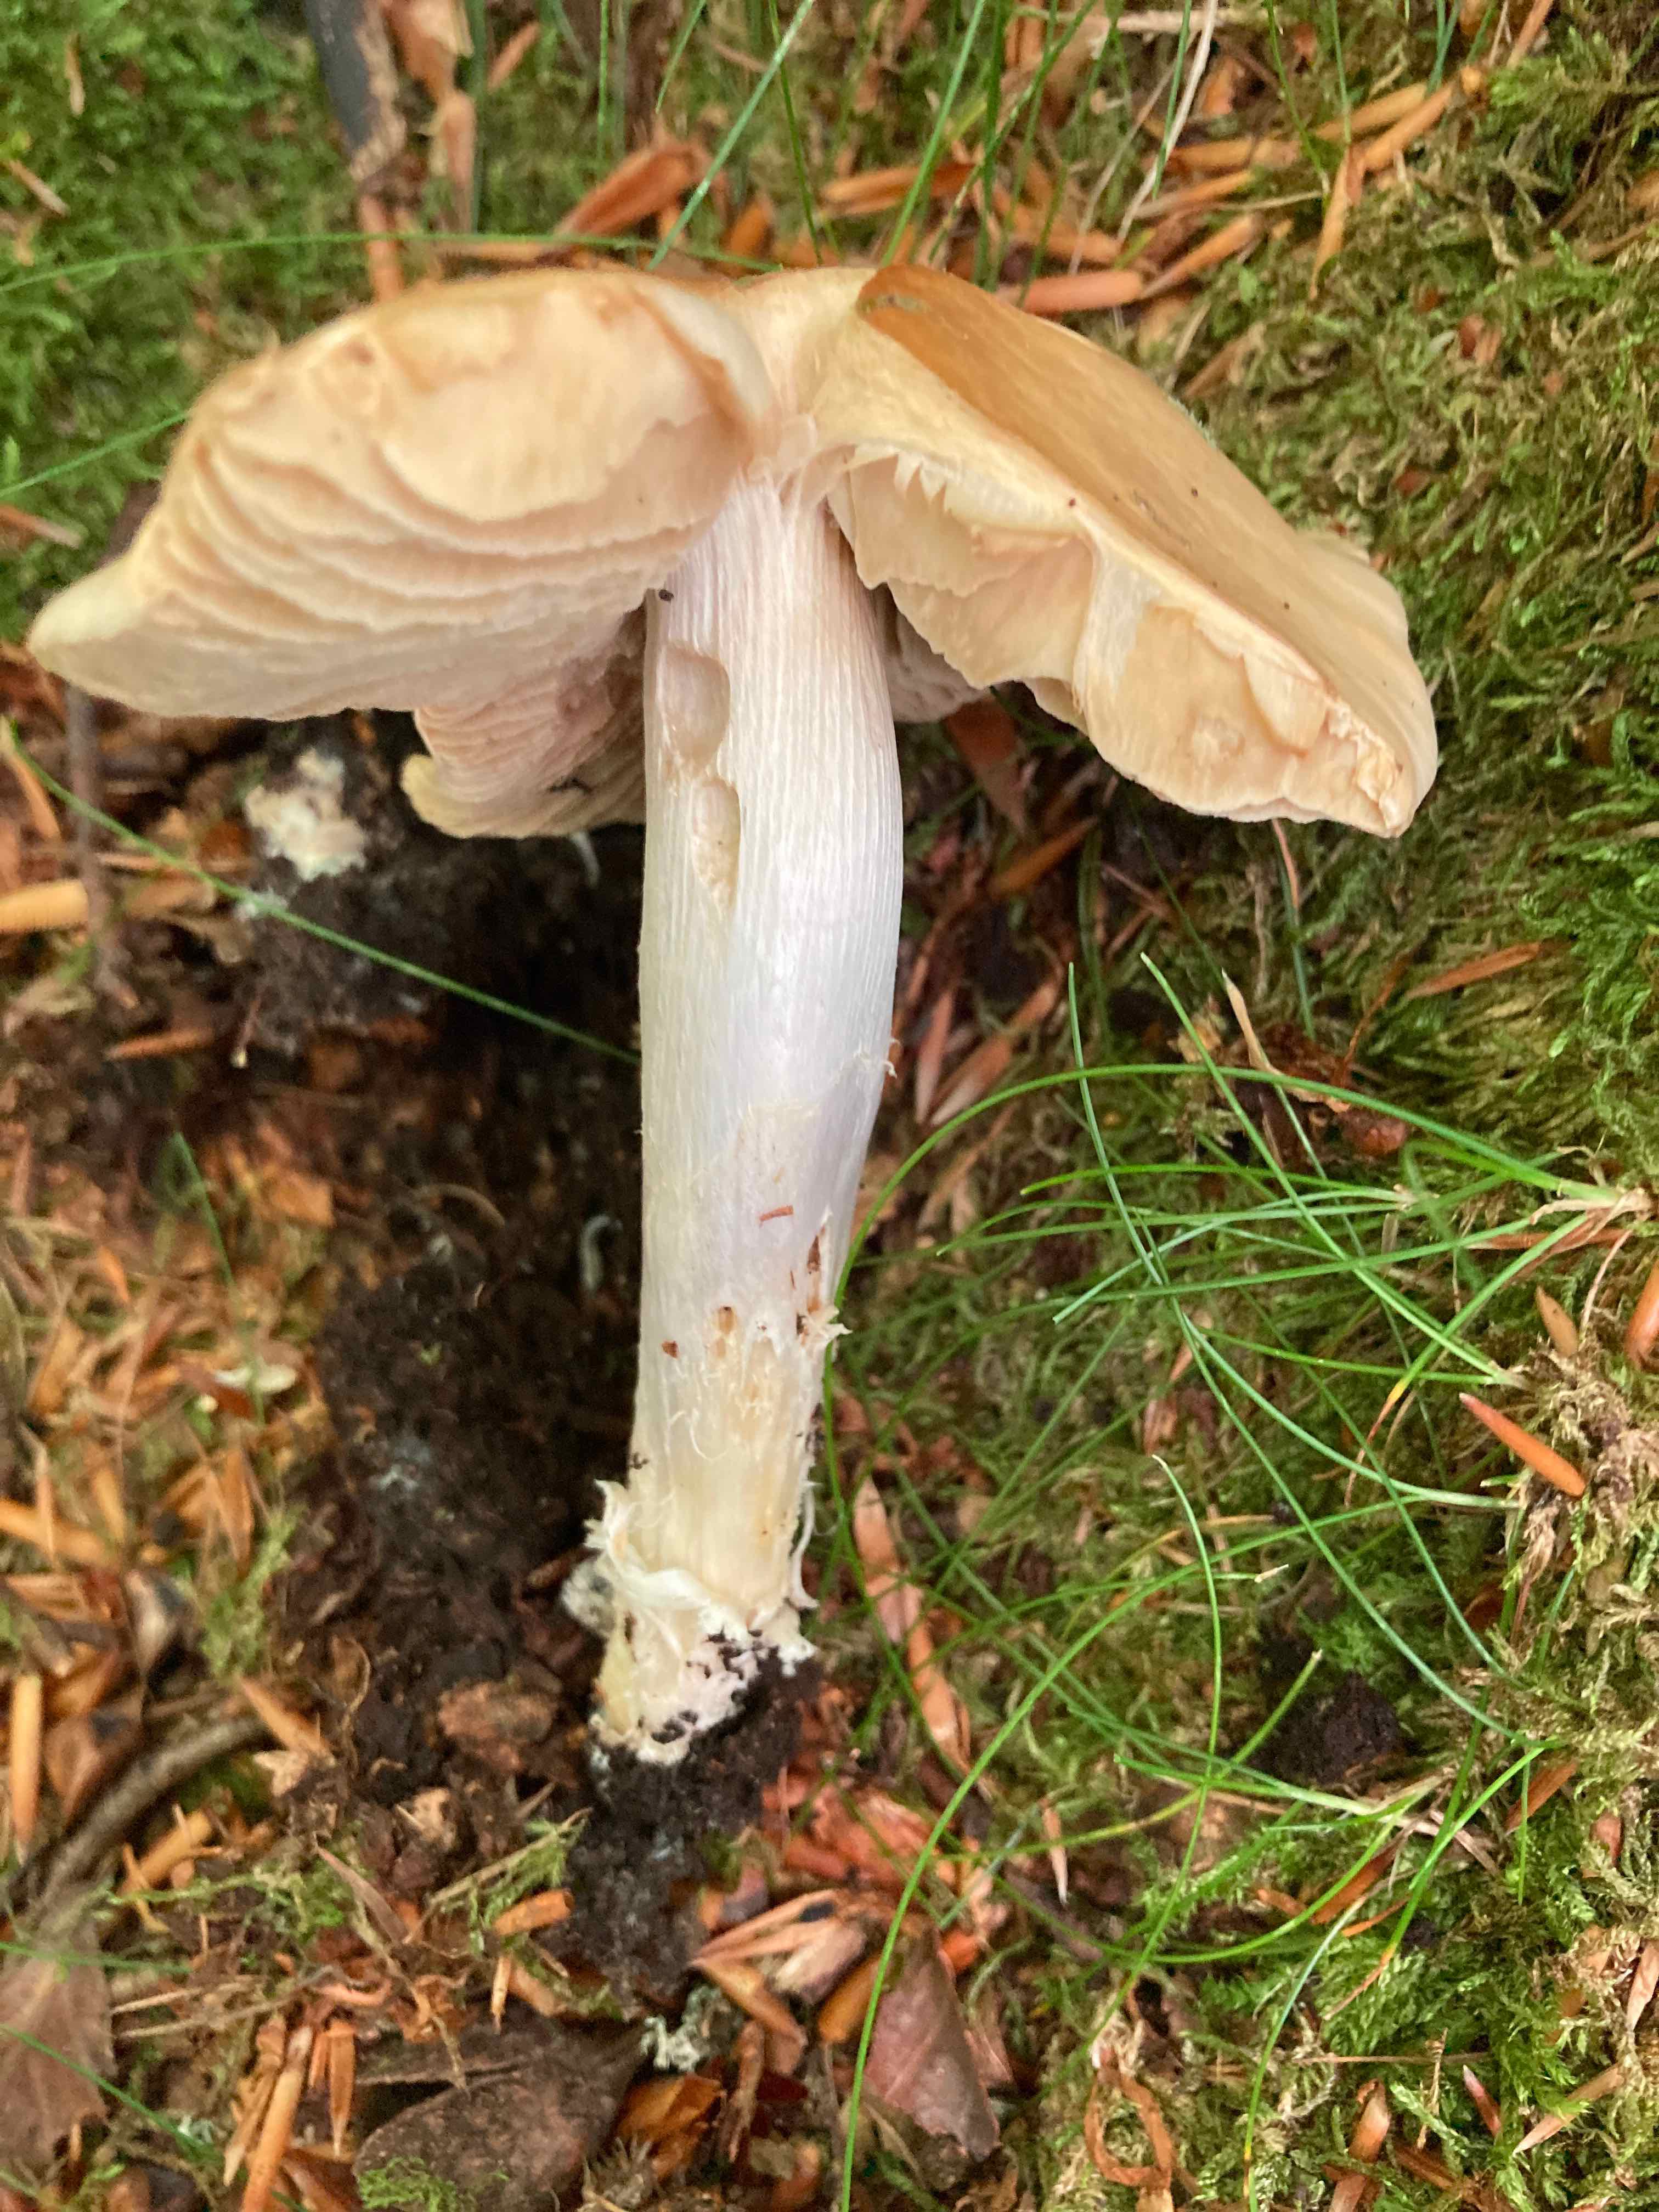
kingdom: Fungi
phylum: Basidiomycota
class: Agaricomycetes
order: Agaricales
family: Cortinariaceae
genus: Cortinarius
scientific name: Cortinarius elatior
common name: høj slørhat
